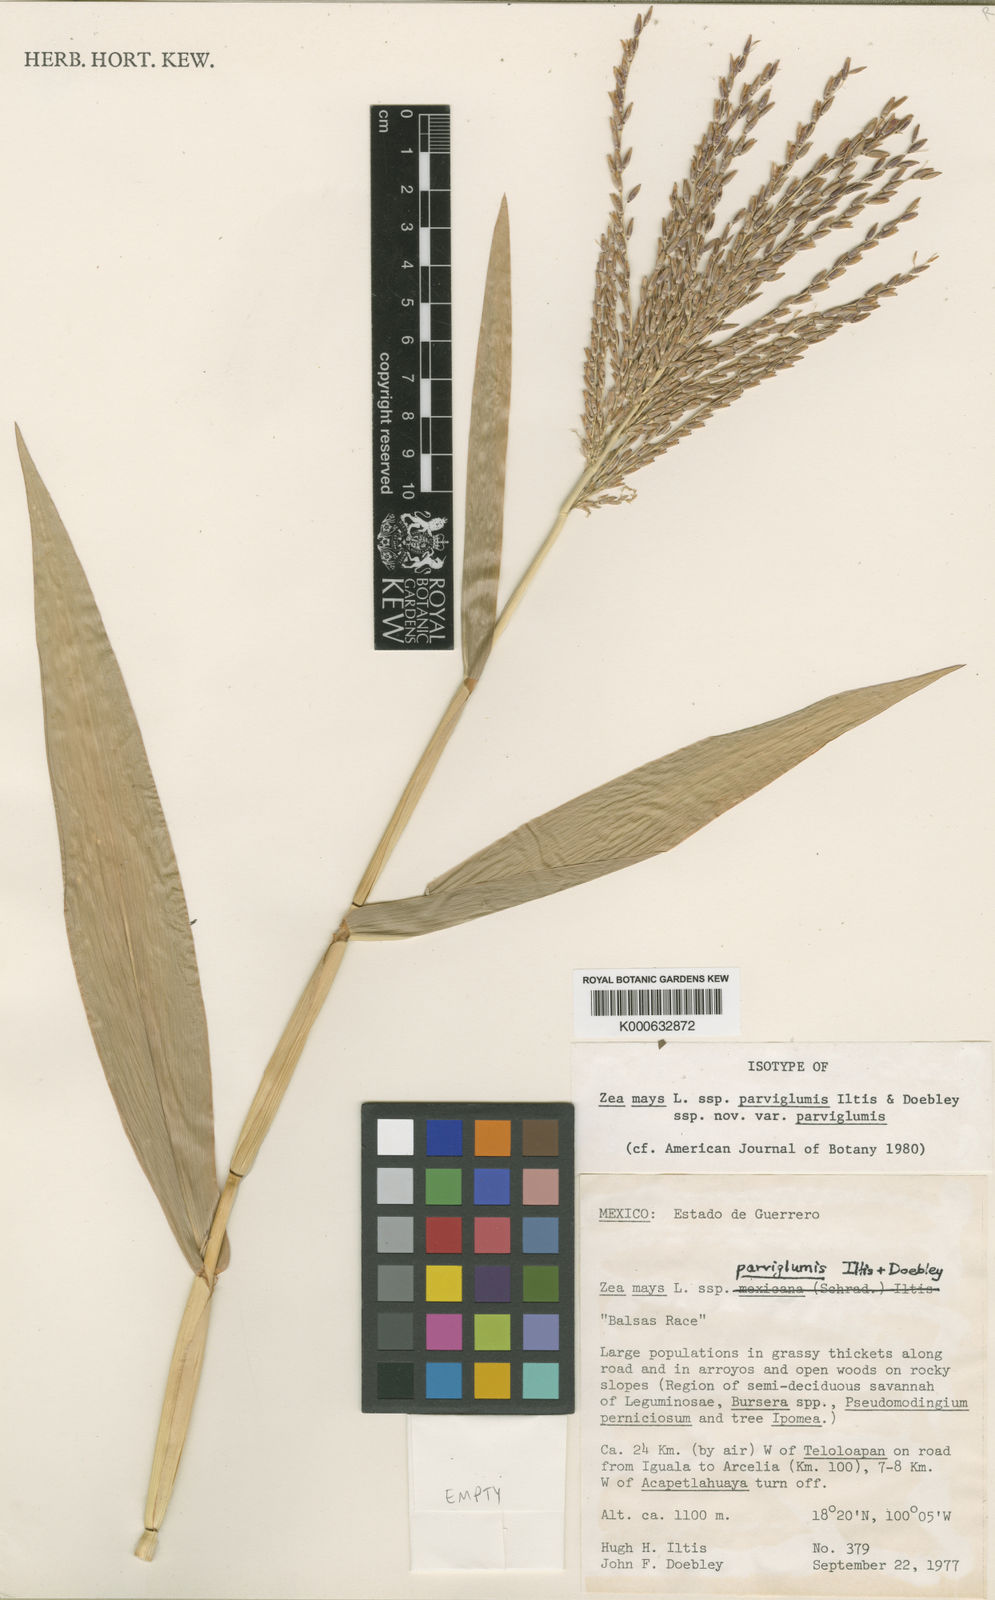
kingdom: Plantae
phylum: Tracheophyta
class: Liliopsida
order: Poales
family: Poaceae
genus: Zea
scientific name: Zea mays
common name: Maize
